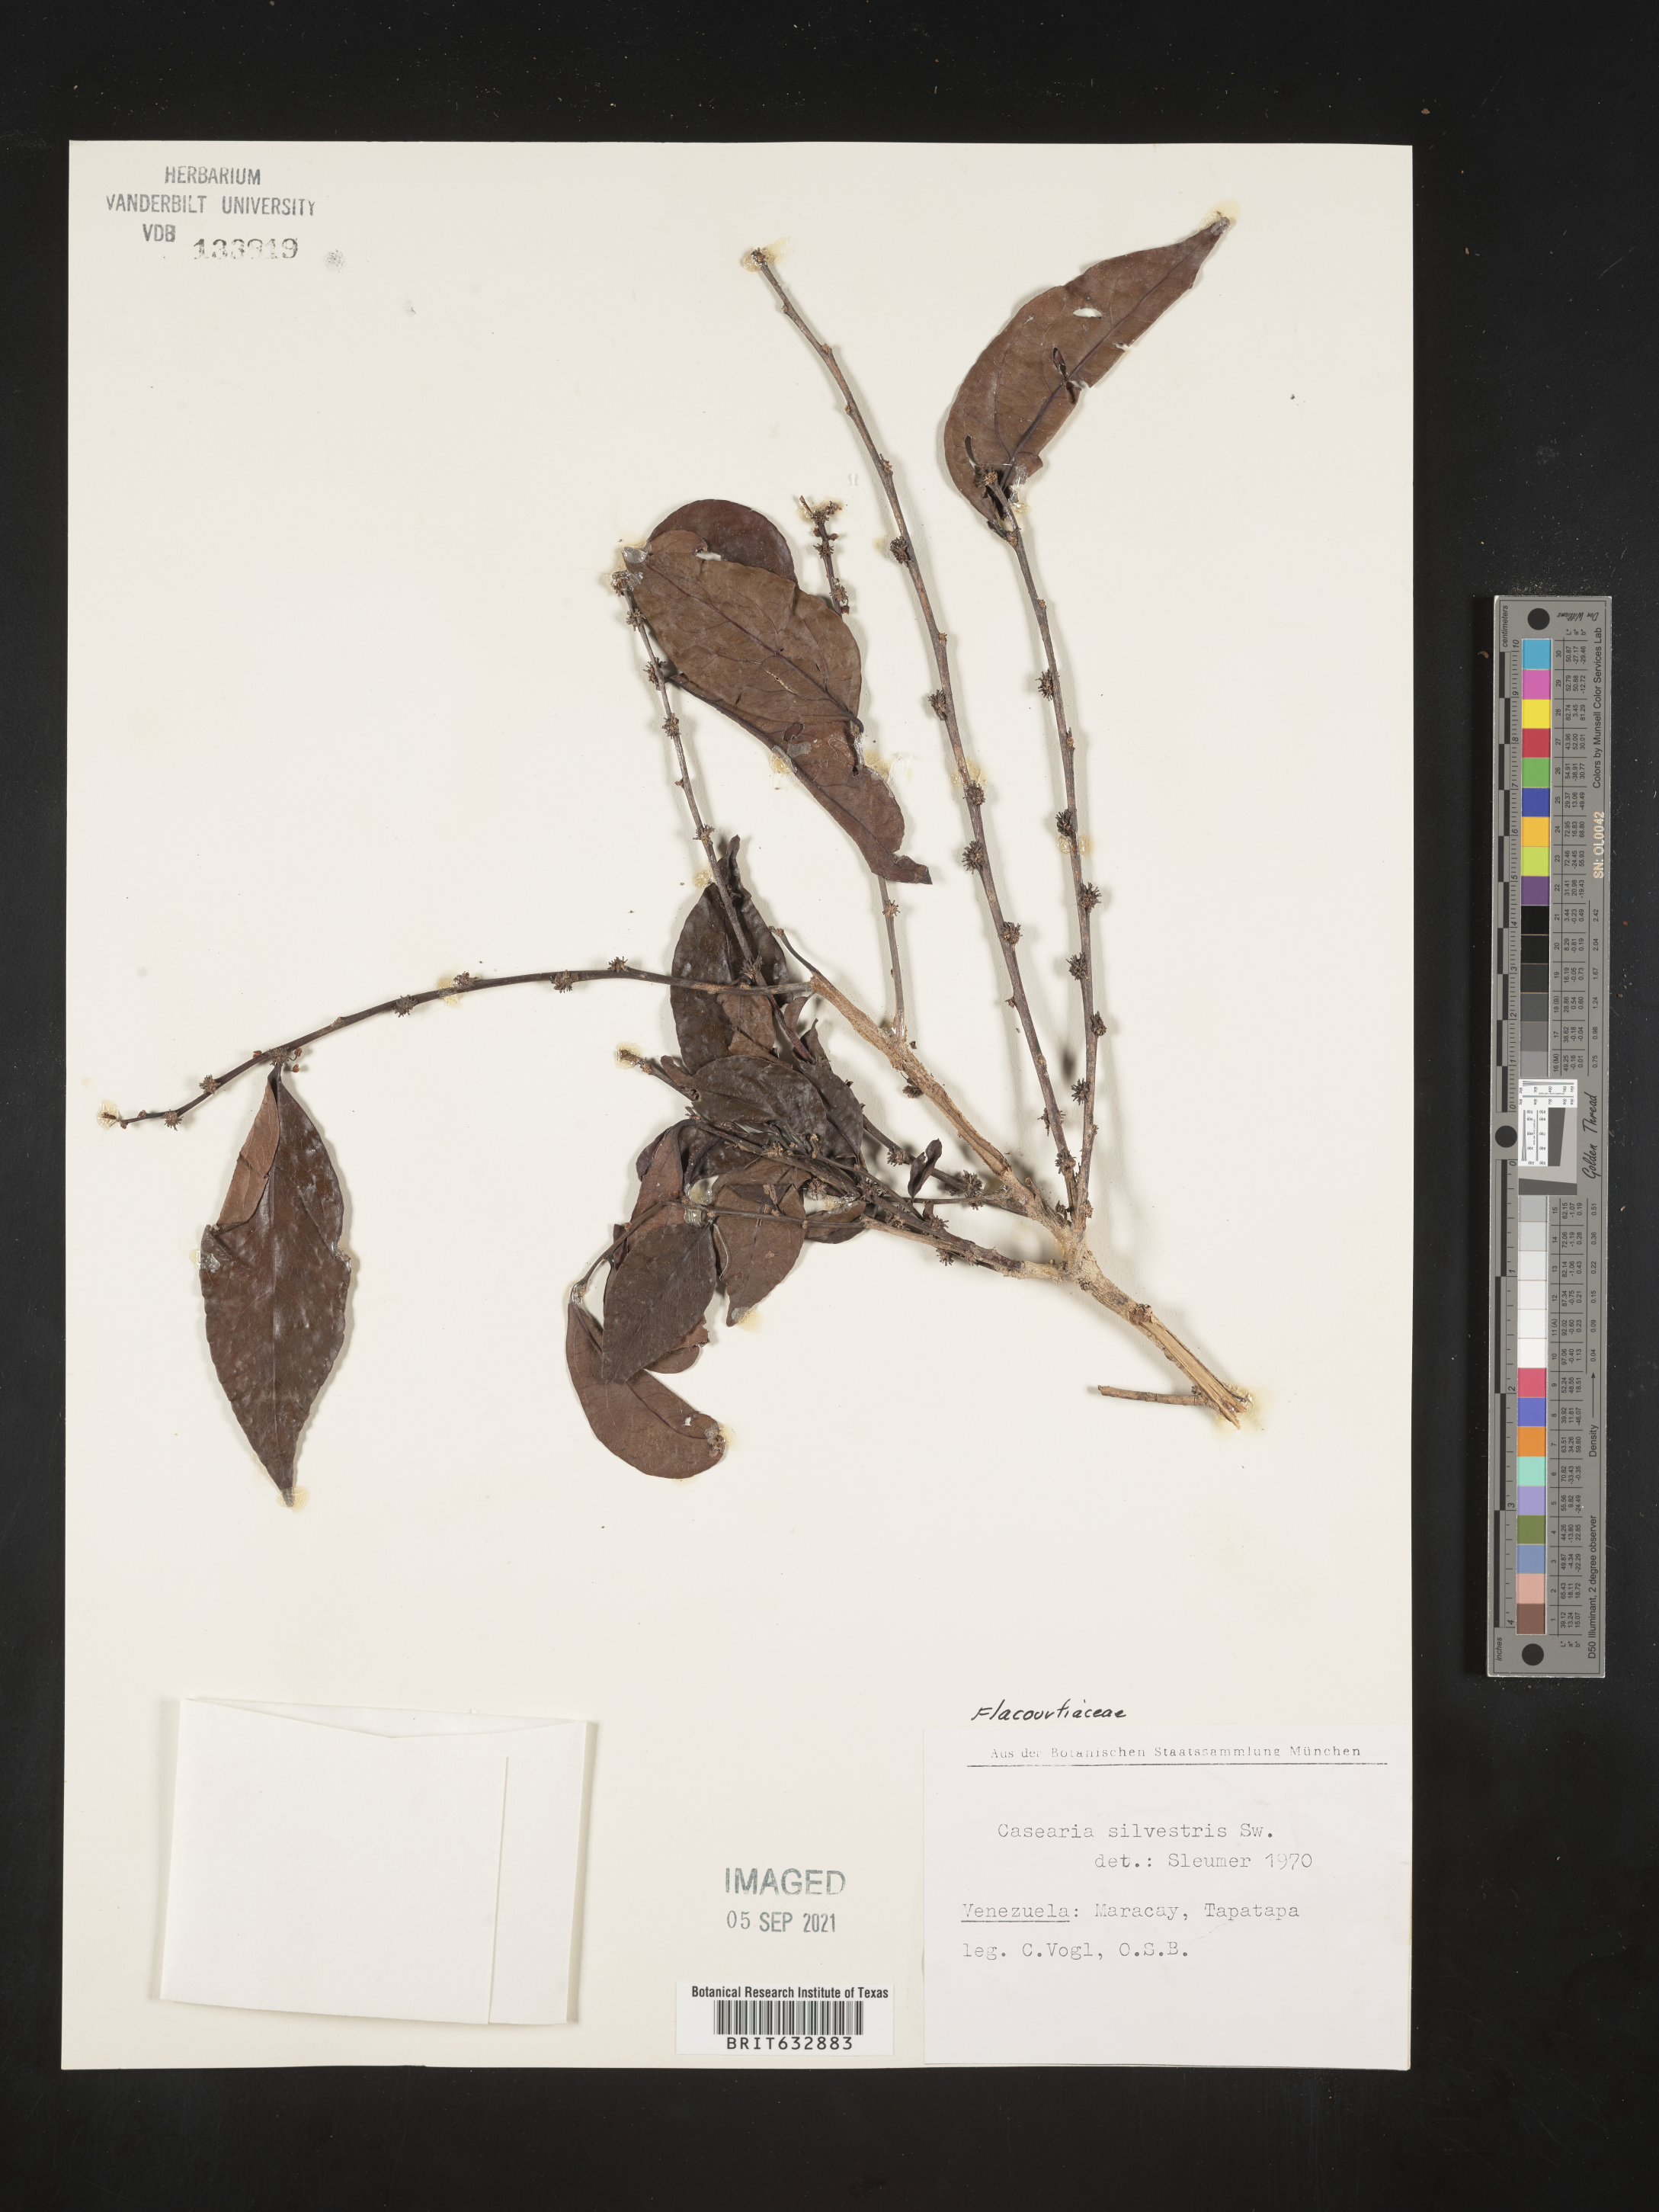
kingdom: Plantae
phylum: Tracheophyta
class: Magnoliopsida
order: Malpighiales
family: Salicaceae
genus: Casearia
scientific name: Casearia
